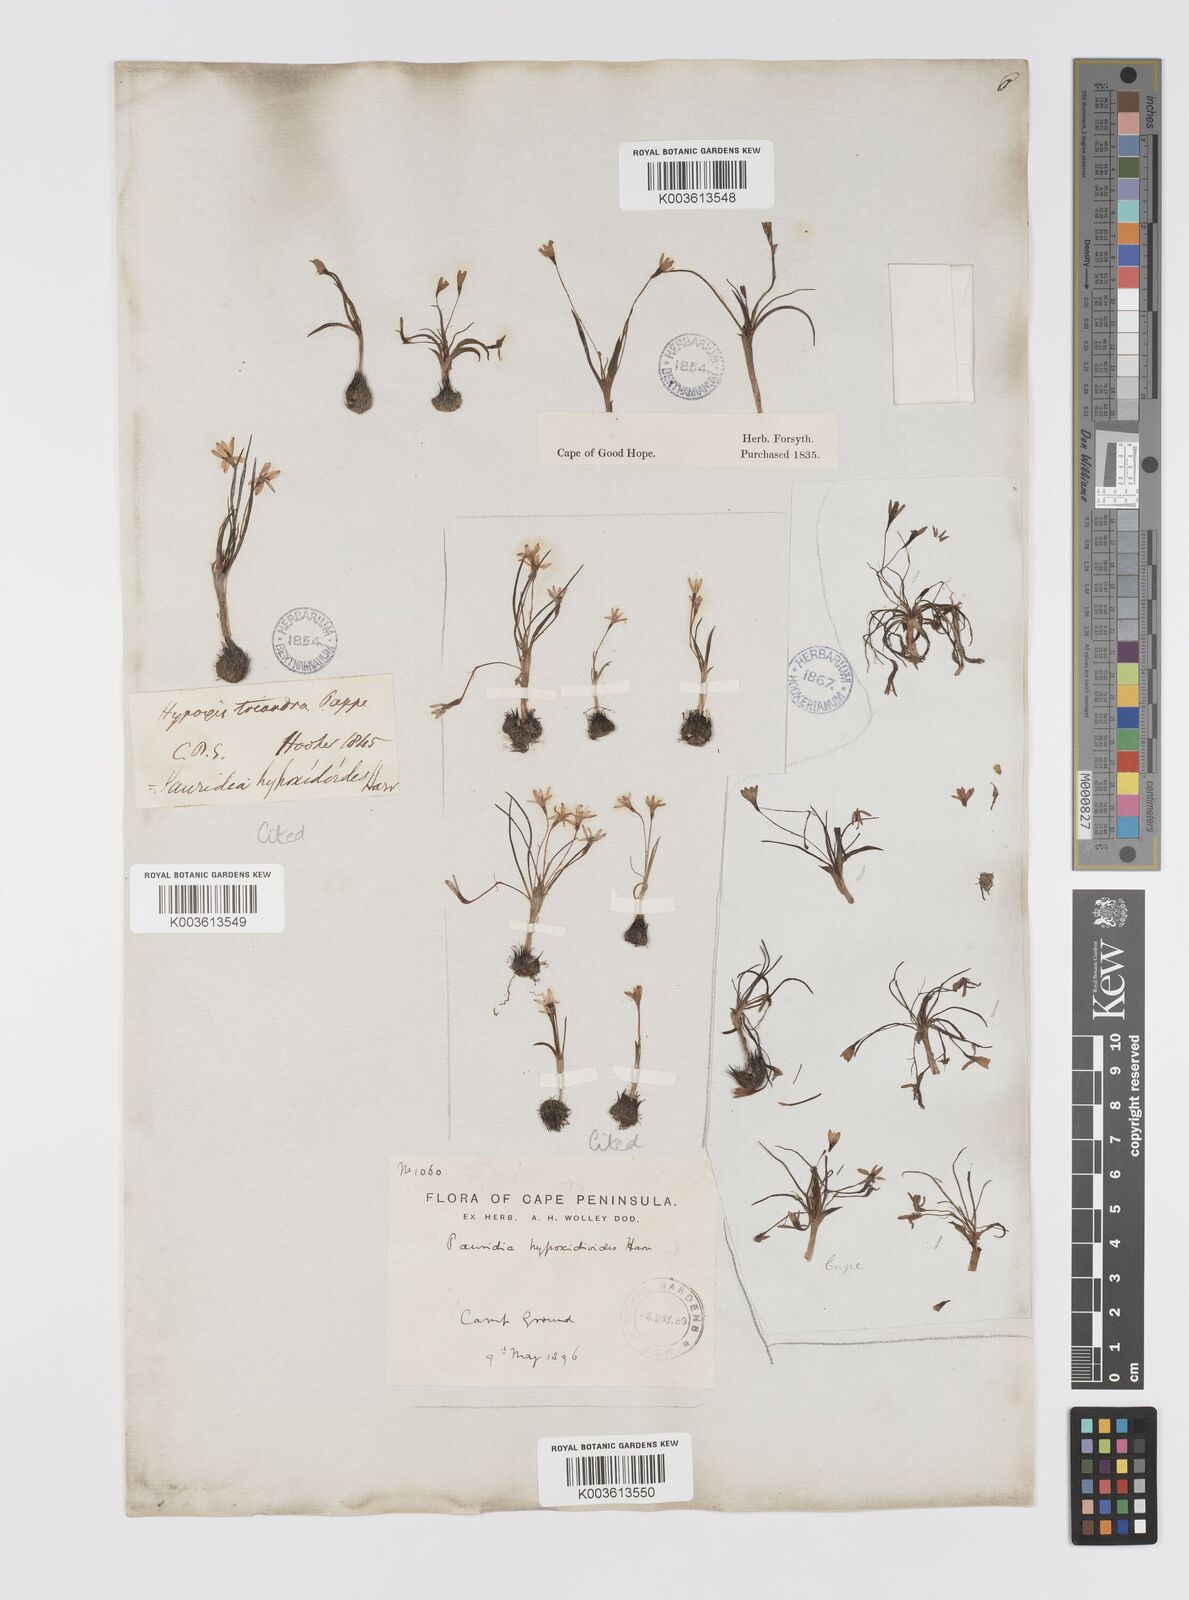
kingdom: Plantae
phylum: Tracheophyta
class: Liliopsida
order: Asparagales
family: Hypoxidaceae
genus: Pauridia
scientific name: Pauridia minuta
